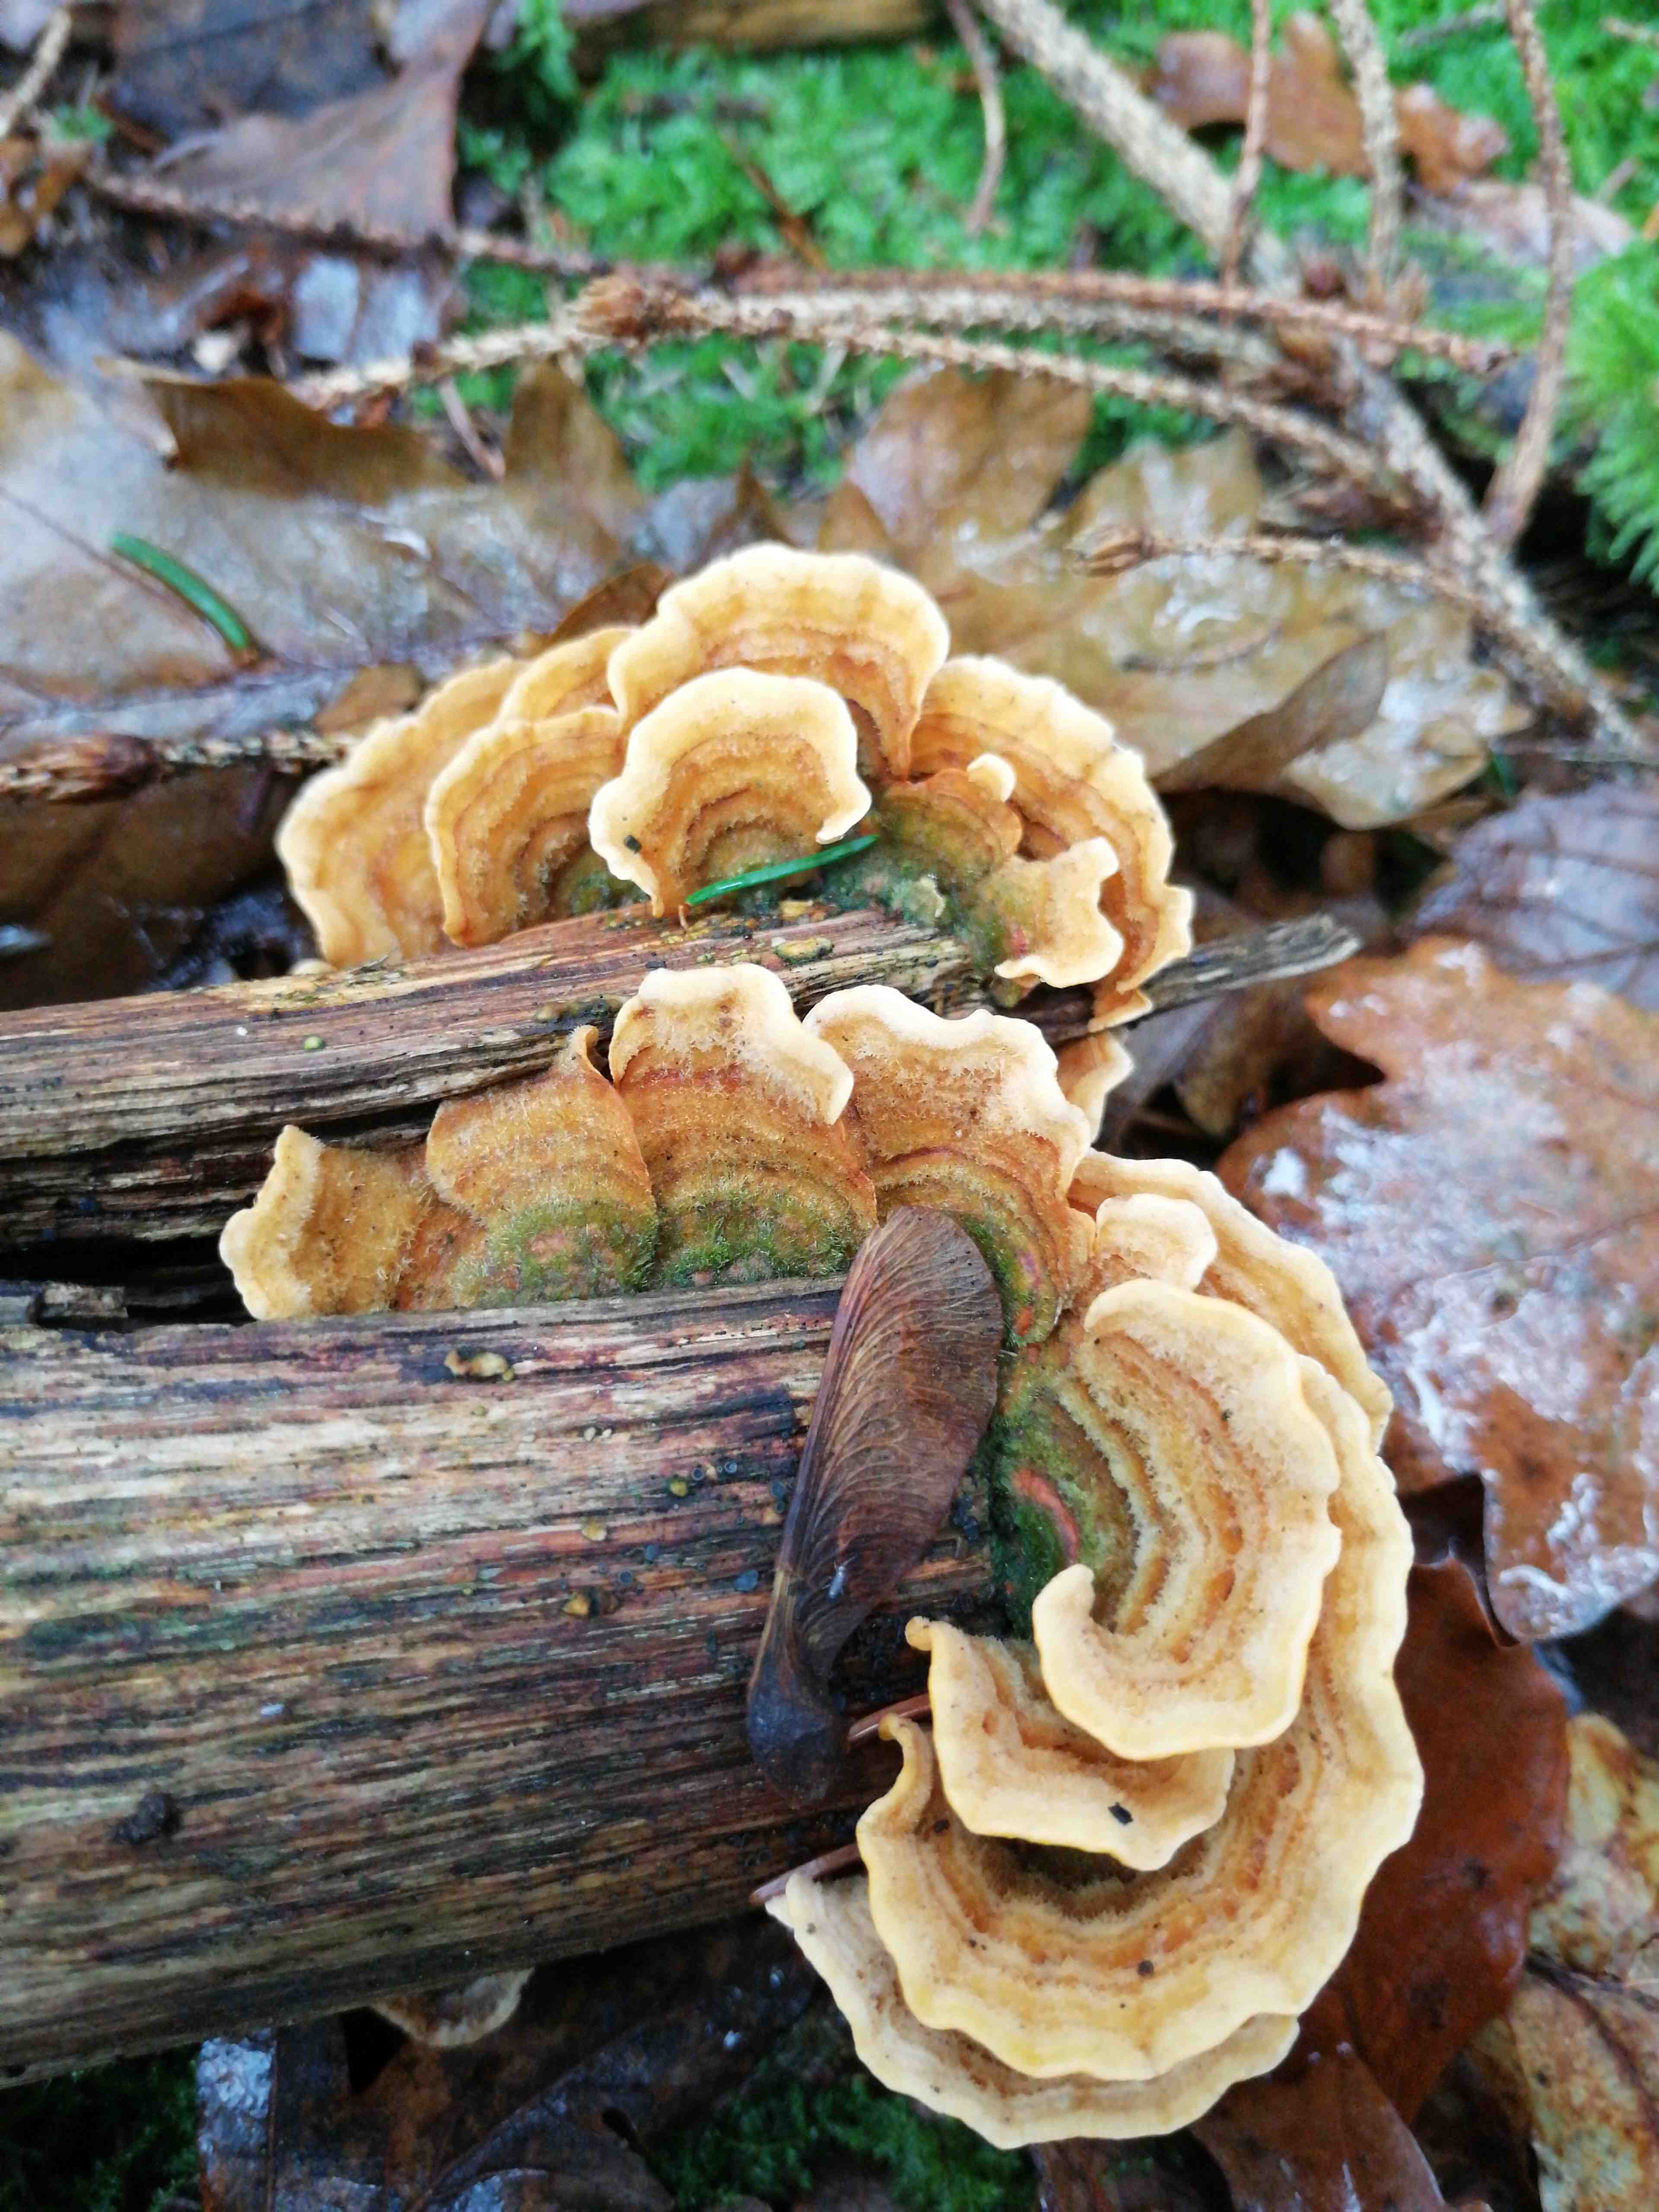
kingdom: Fungi
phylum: Basidiomycota
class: Agaricomycetes
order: Russulales
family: Stereaceae
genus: Stereum
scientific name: Stereum subtomentosum
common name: smuk lædersvamp
